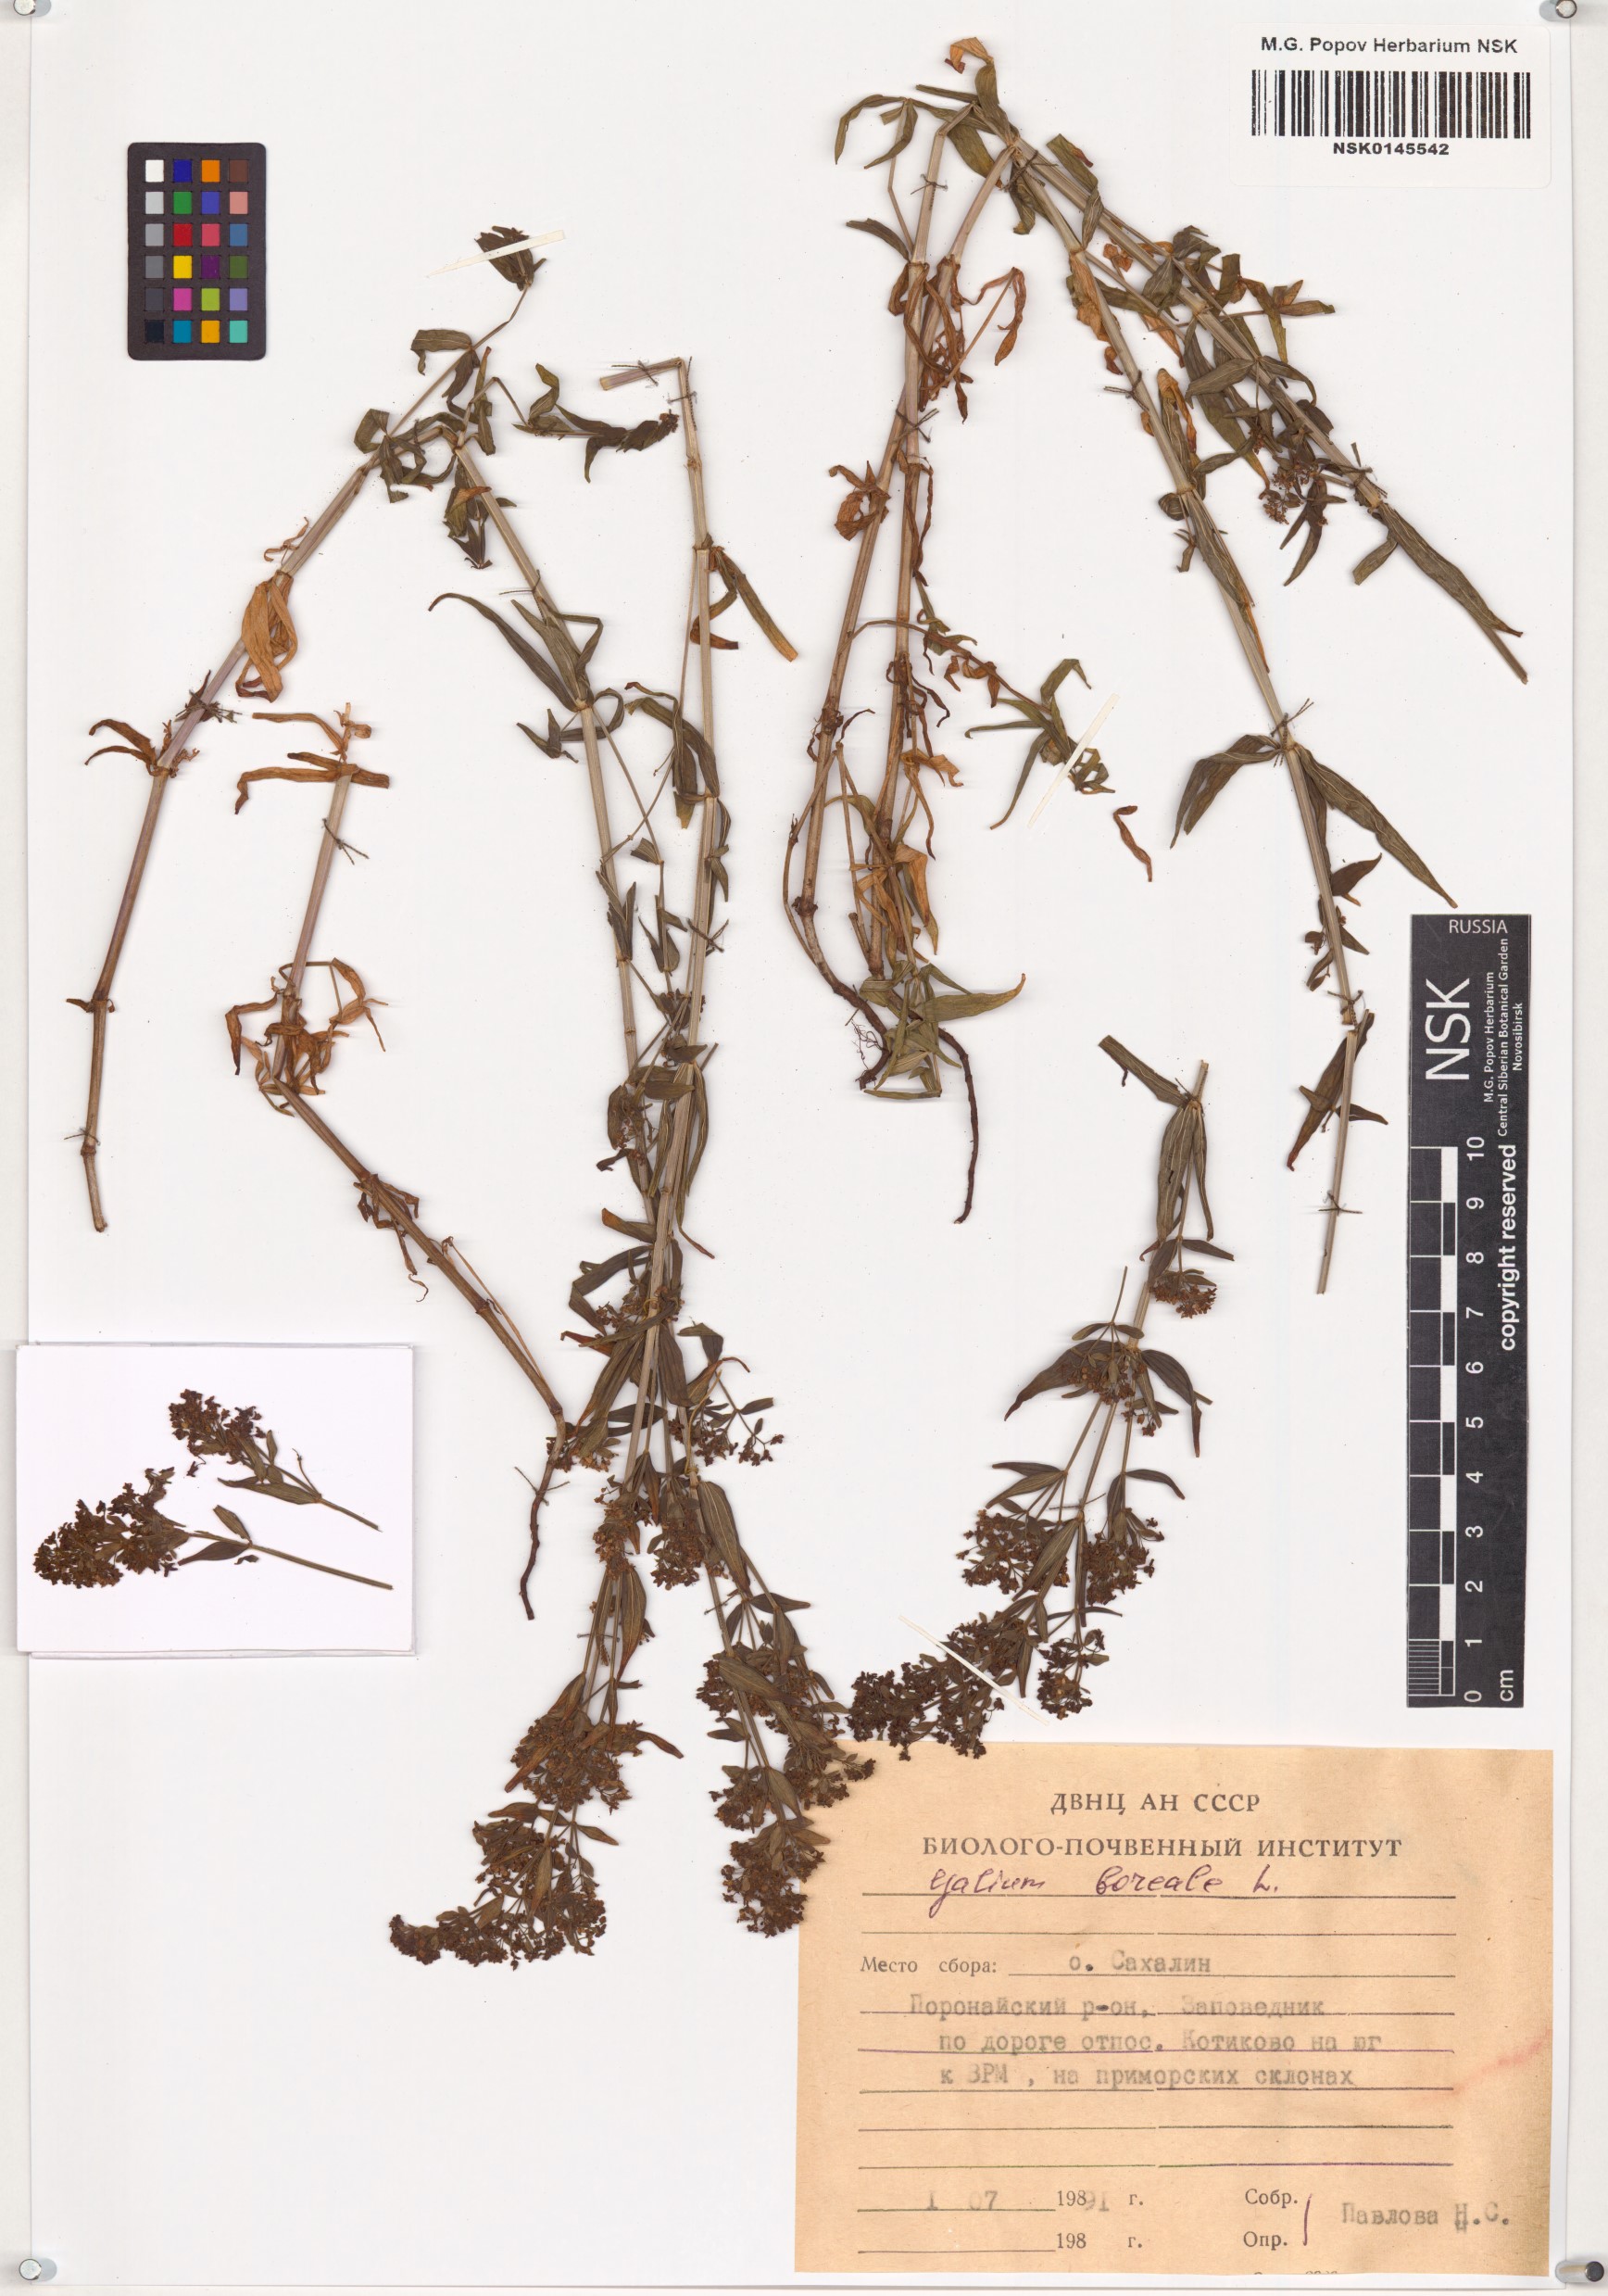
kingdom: Plantae
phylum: Tracheophyta
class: Magnoliopsida
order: Gentianales
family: Rubiaceae
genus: Galium
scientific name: Galium boreale
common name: Northern bedstraw
